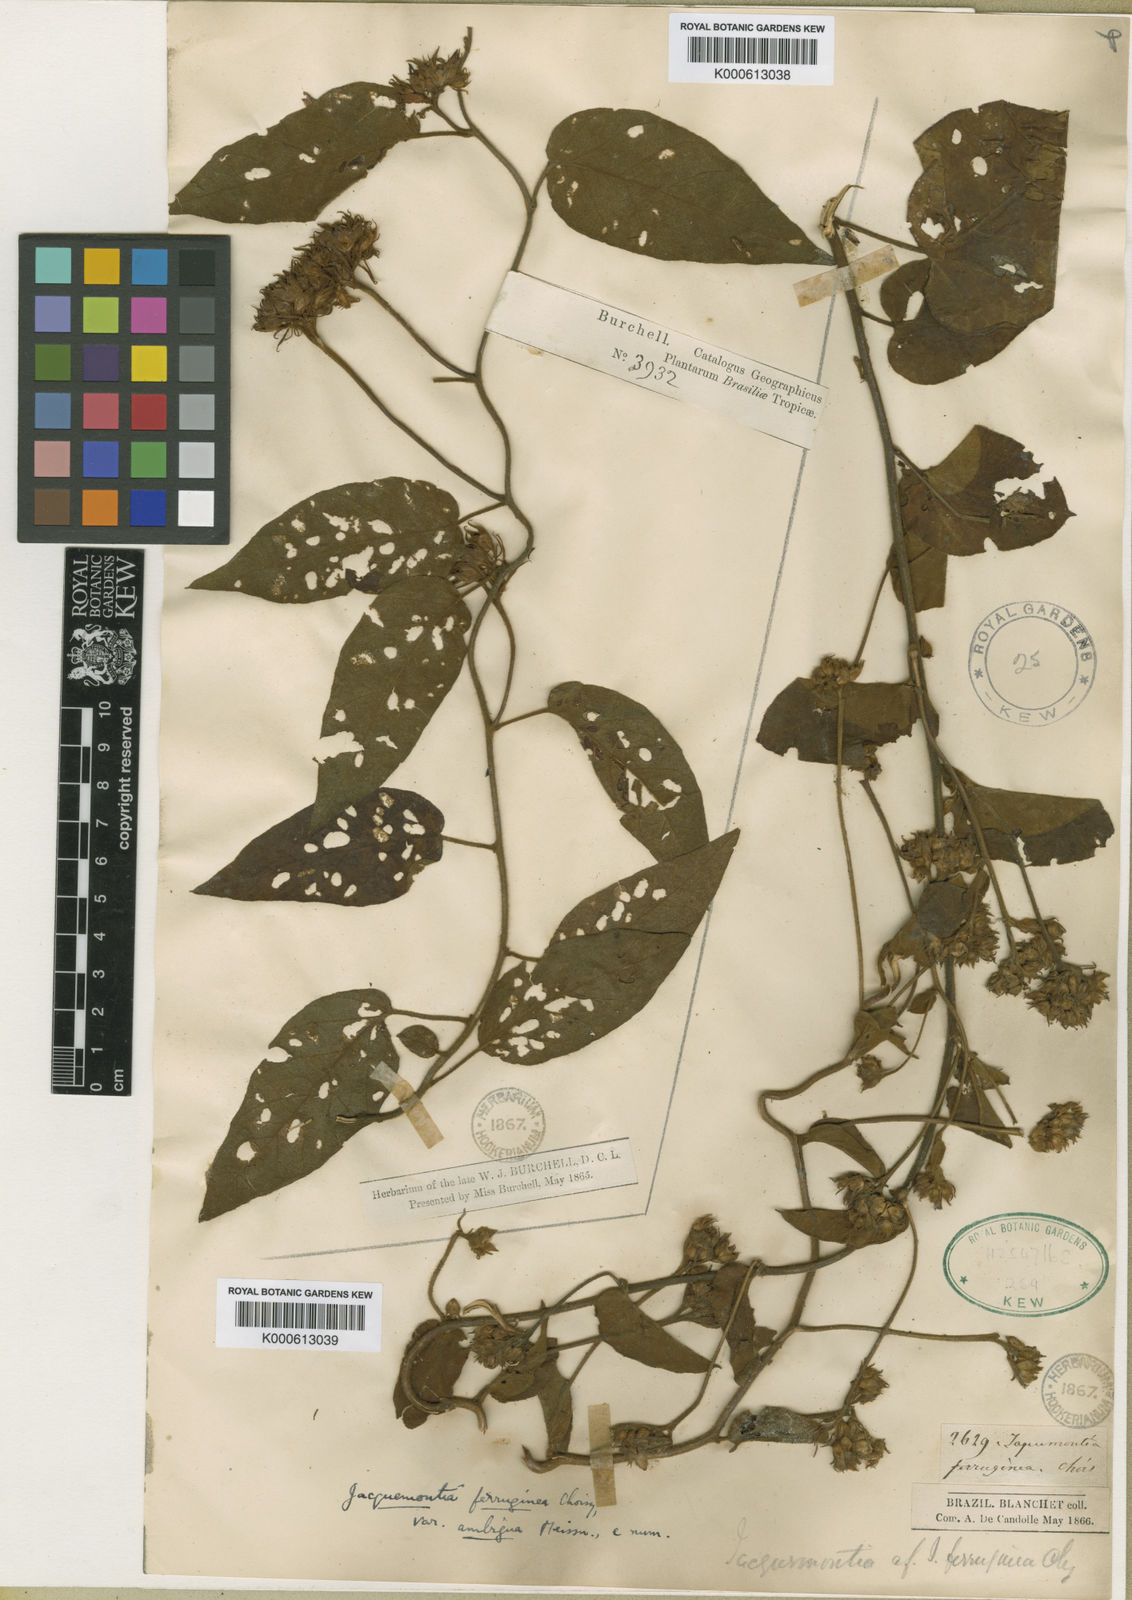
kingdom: Plantae
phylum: Tracheophyta
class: Magnoliopsida
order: Solanales
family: Convolvulaceae
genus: Jacquemontia
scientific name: Jacquemontia cumanensis
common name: Thicket clustervine
